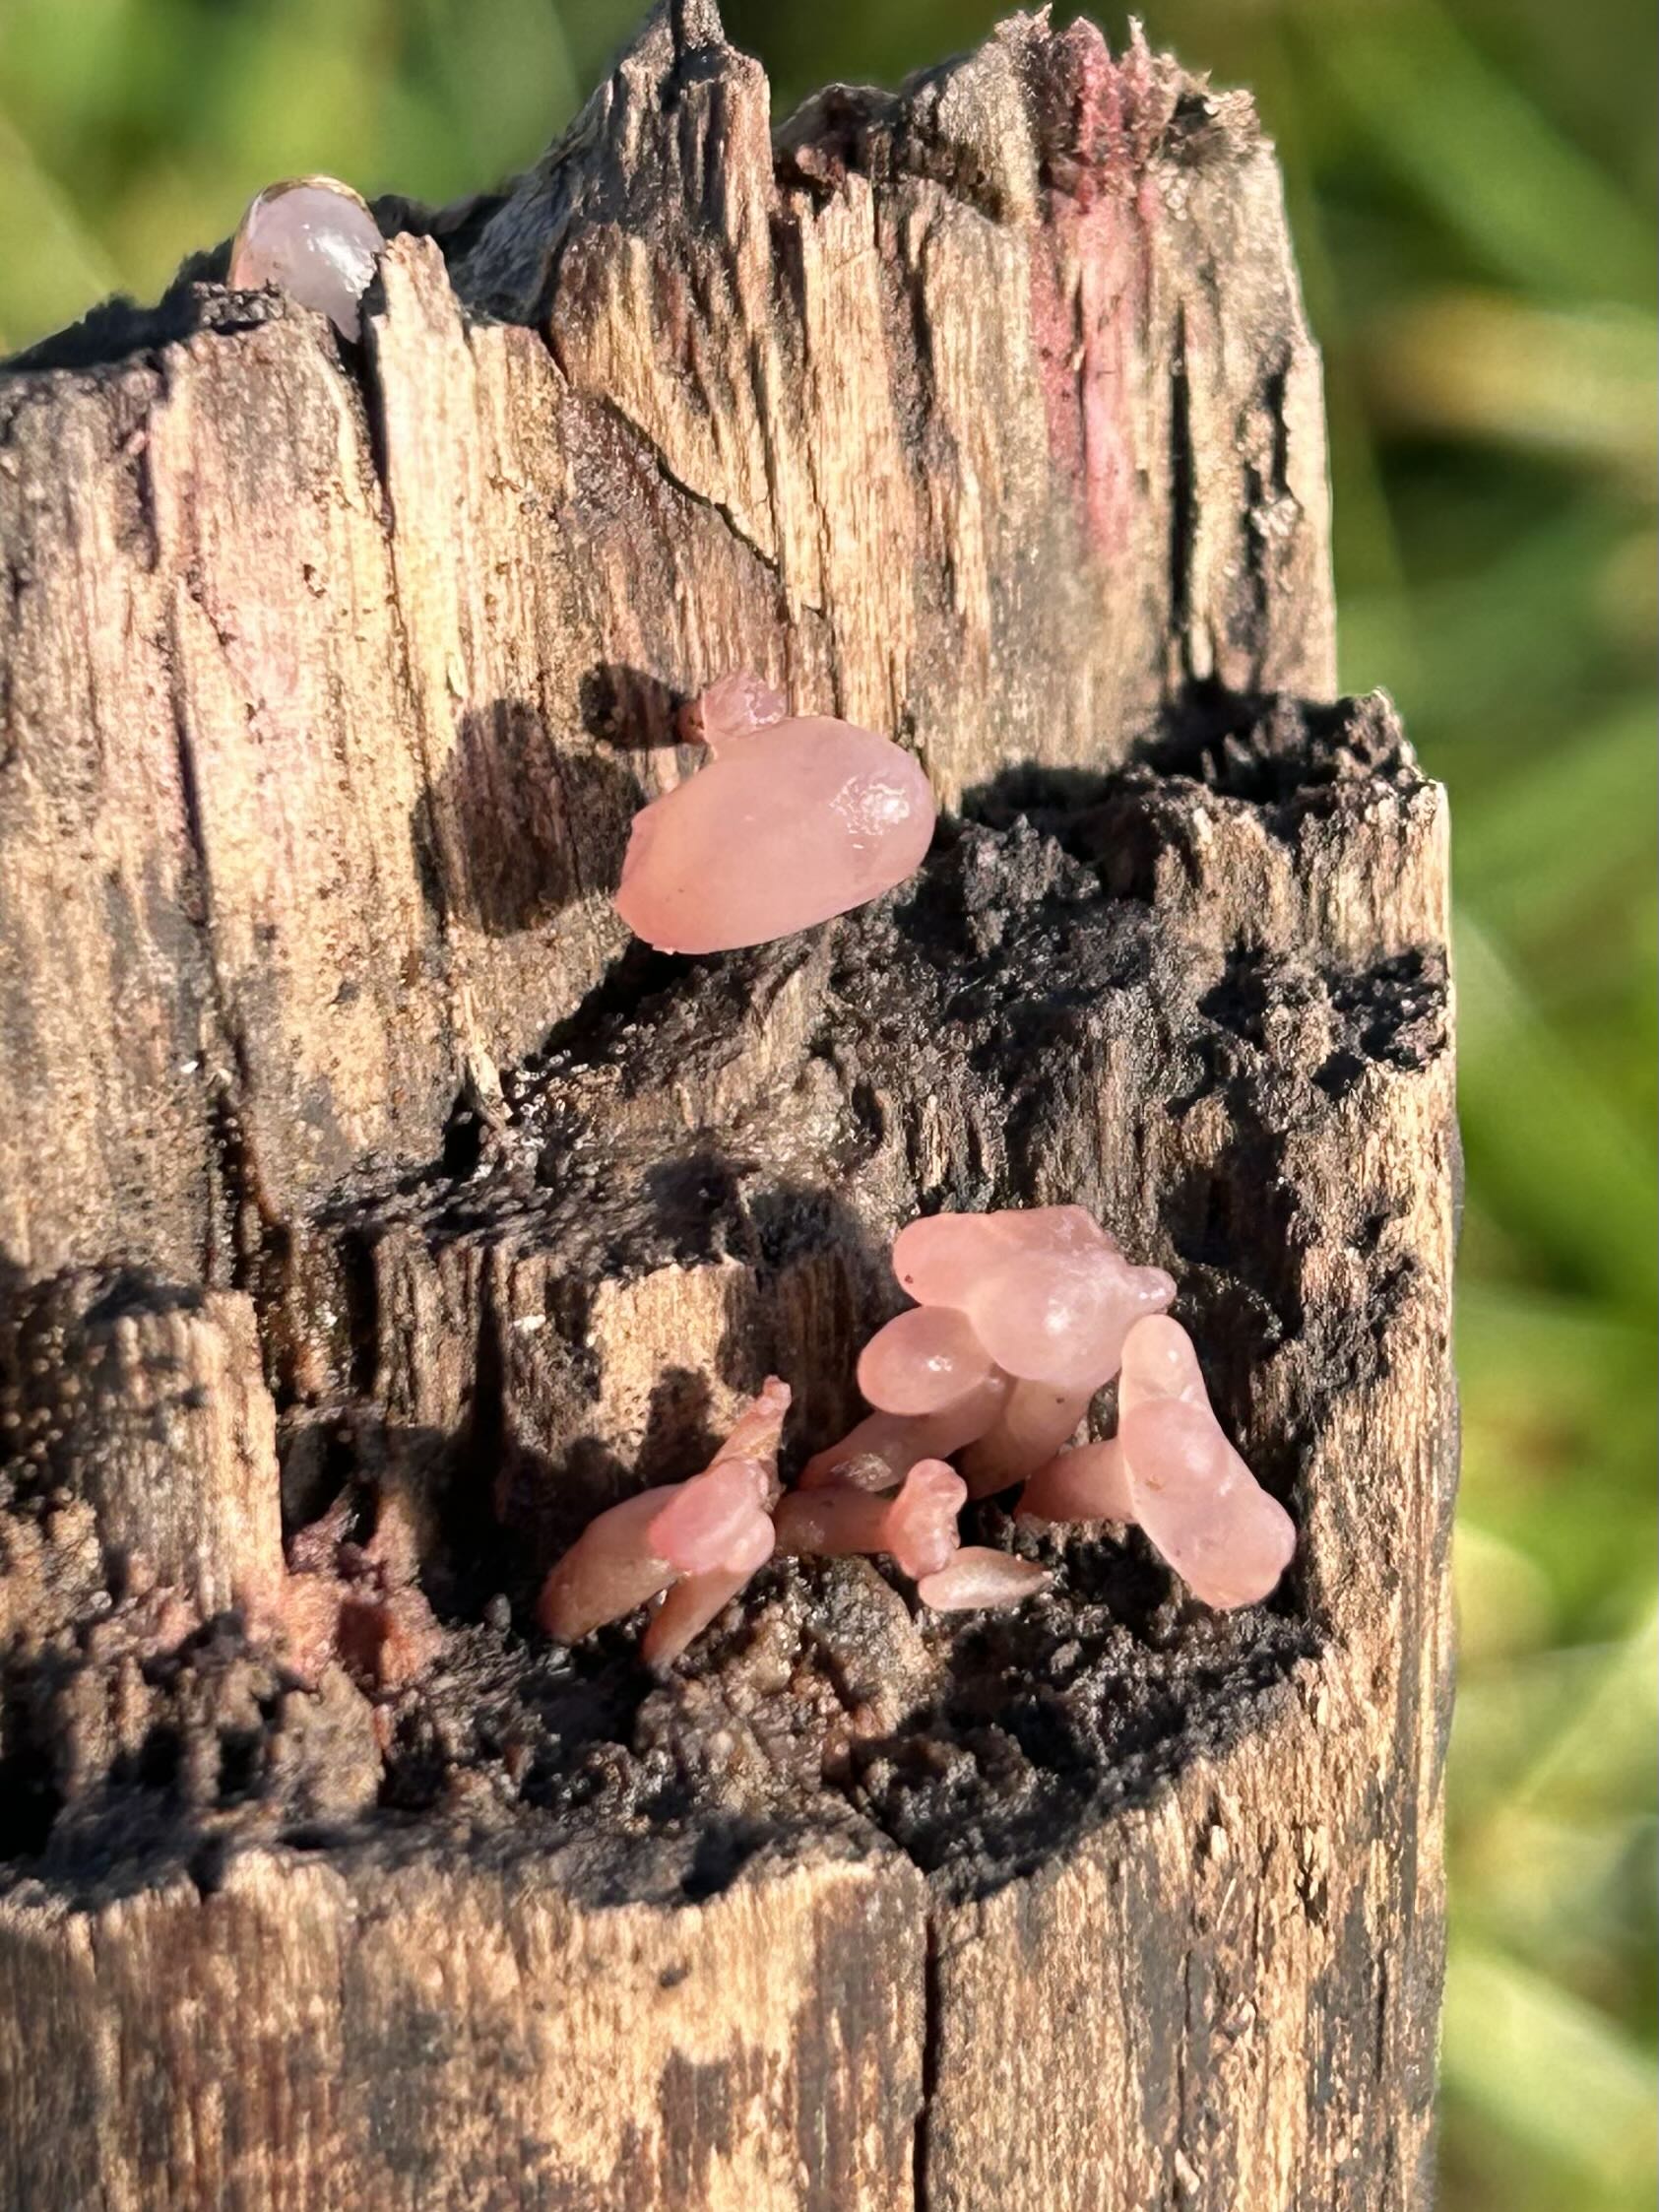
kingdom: Fungi
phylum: Ascomycota
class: Leotiomycetes
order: Helotiales
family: Gelatinodiscaceae
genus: Ascocoryne
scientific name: Ascocoryne sarcoides
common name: rødlilla sejskive
